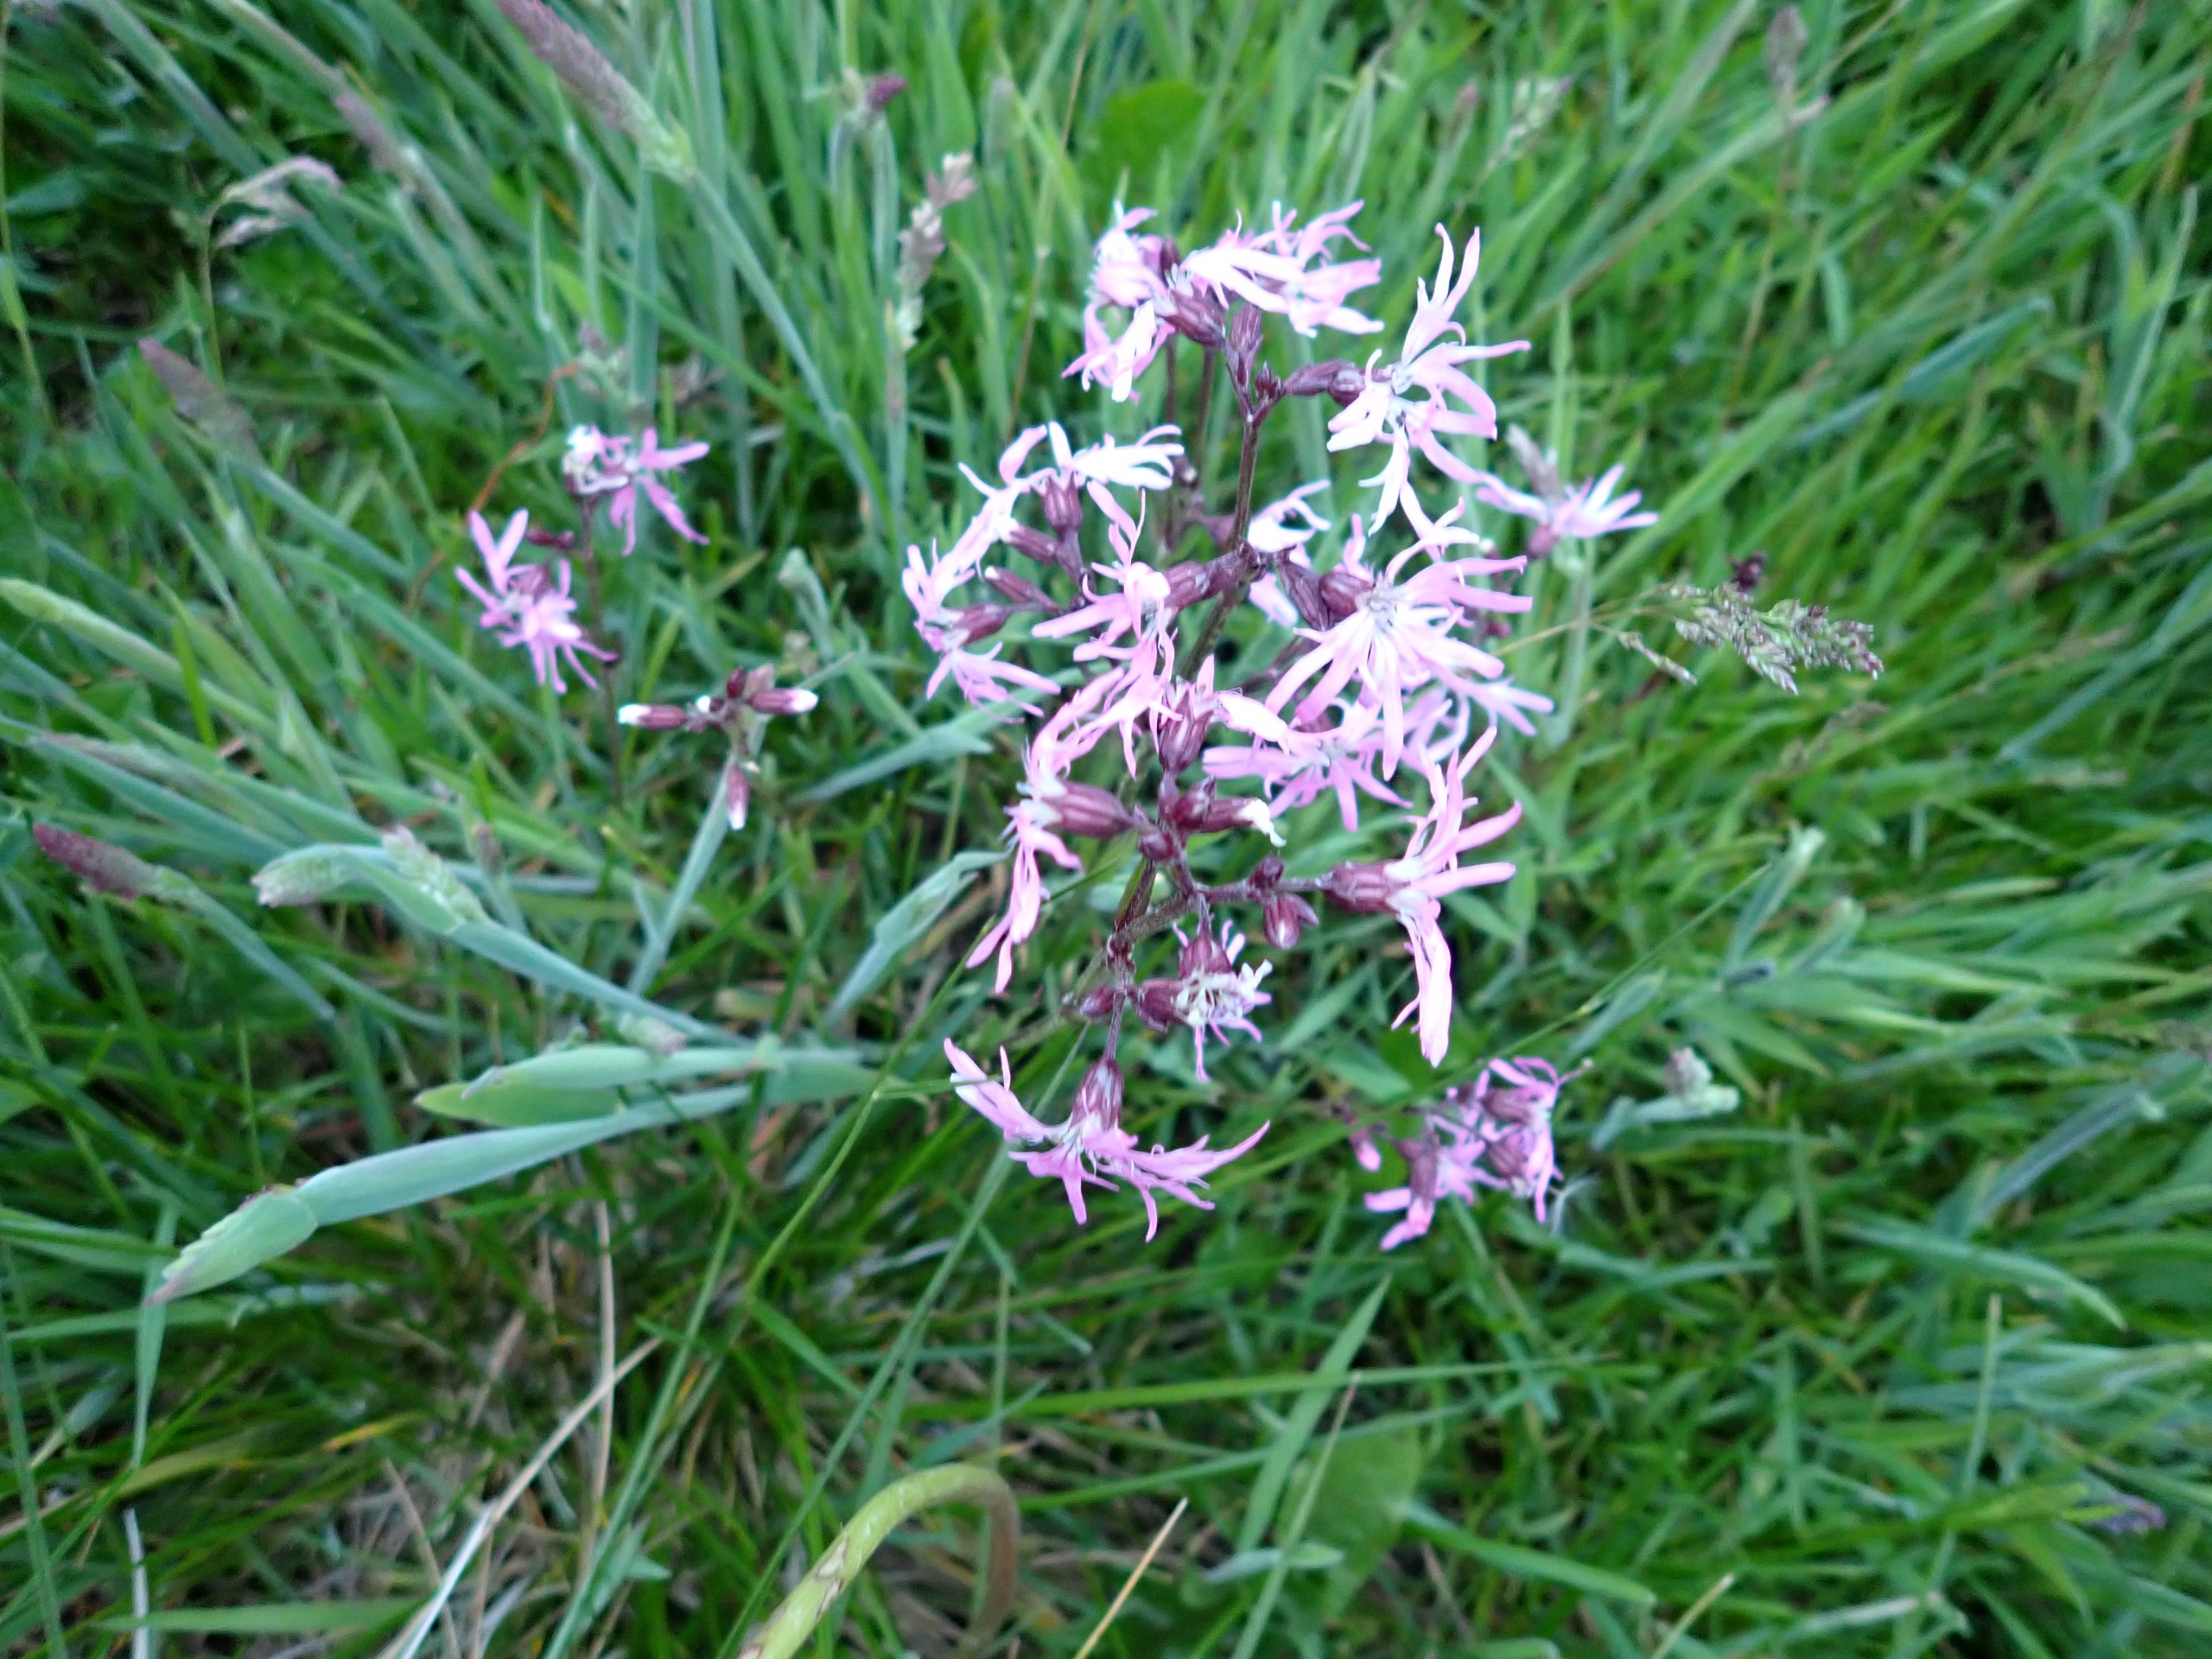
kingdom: Plantae
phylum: Tracheophyta
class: Magnoliopsida
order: Caryophyllales
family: Caryophyllaceae
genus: Silene
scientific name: Silene flos-cuculi
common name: Trævlekrone
